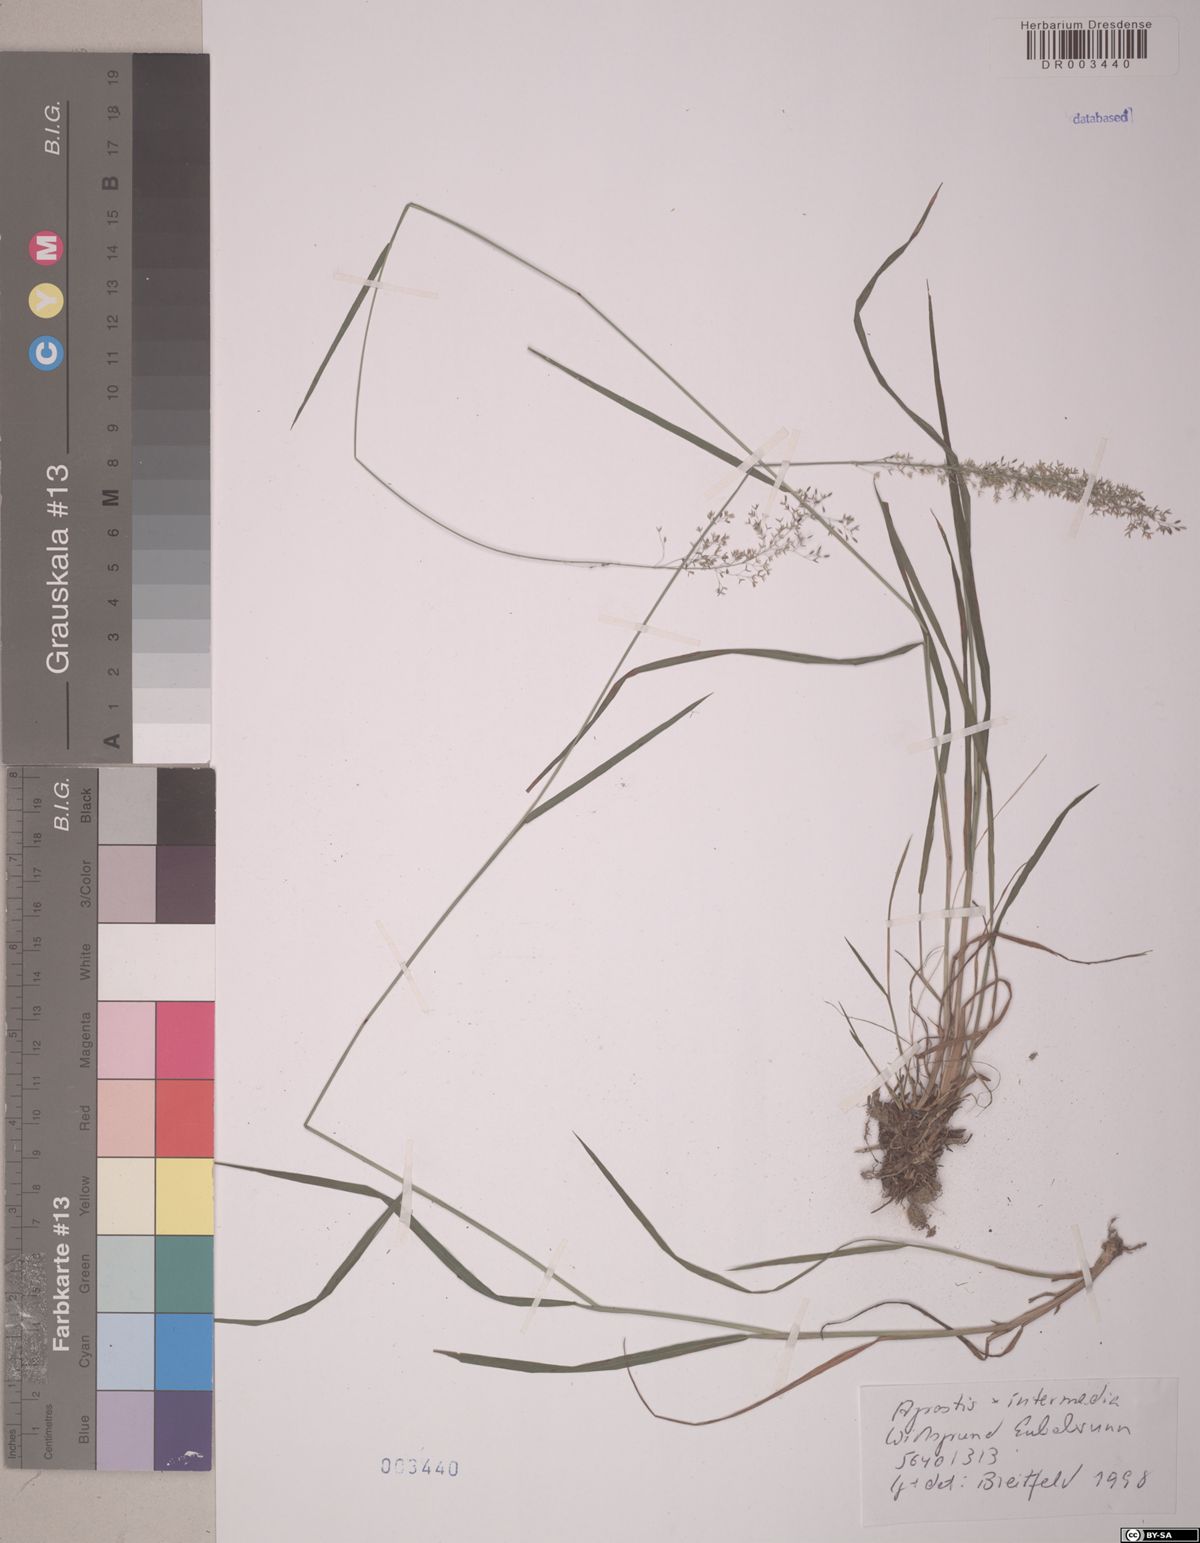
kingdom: Plantae
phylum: Tracheophyta
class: Liliopsida
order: Poales
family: Poaceae
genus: Agrostis
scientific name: Agrostis
